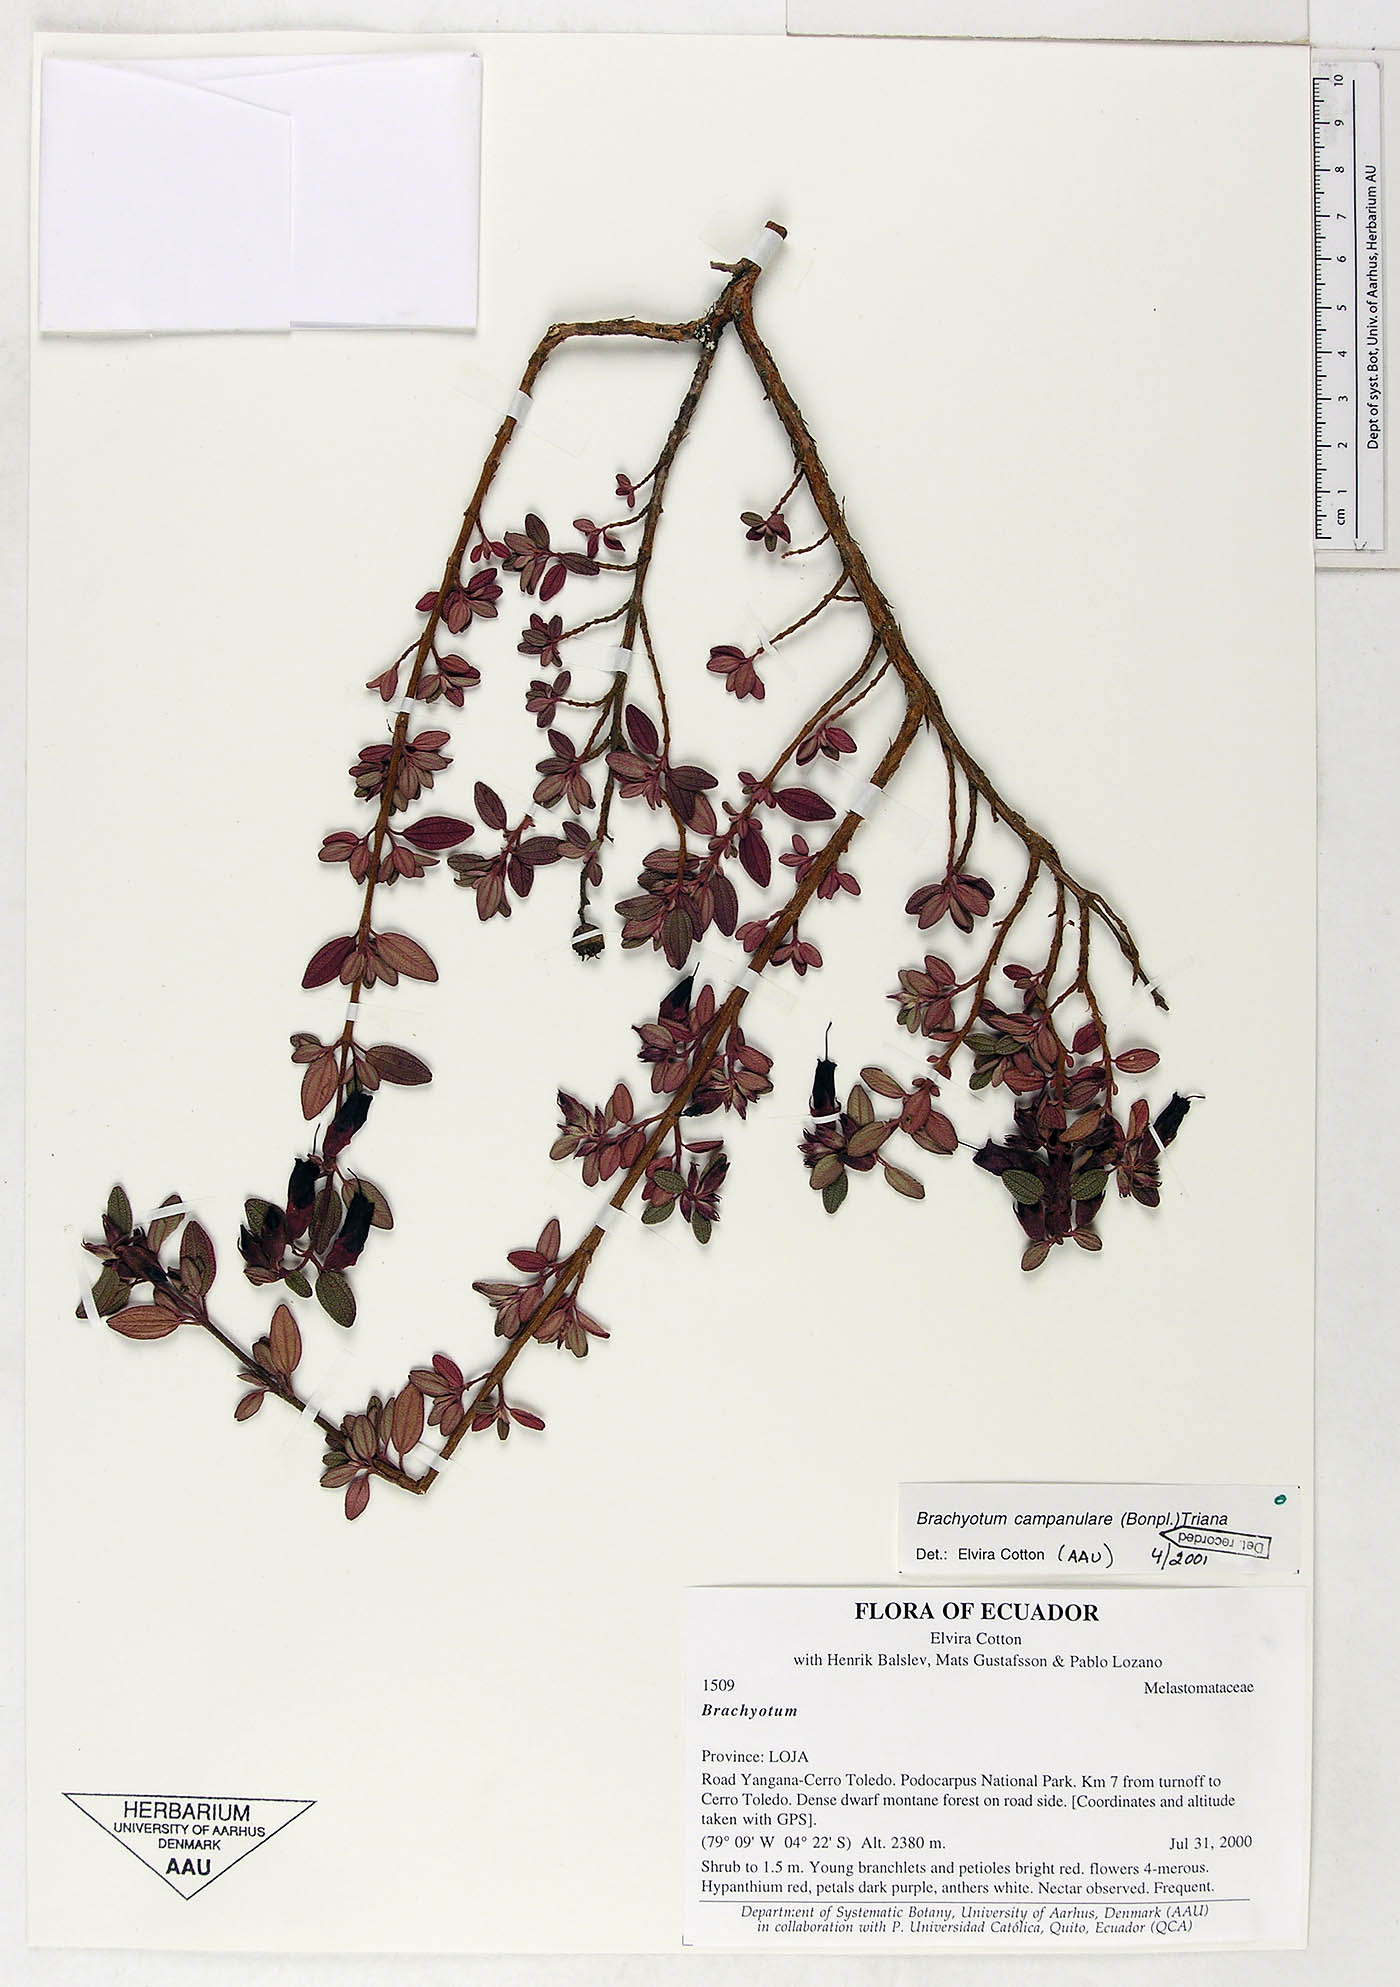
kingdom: Plantae
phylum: Tracheophyta
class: Magnoliopsida
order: Myrtales
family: Melastomataceae
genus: Brachyotum
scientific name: Brachyotum campanulare
